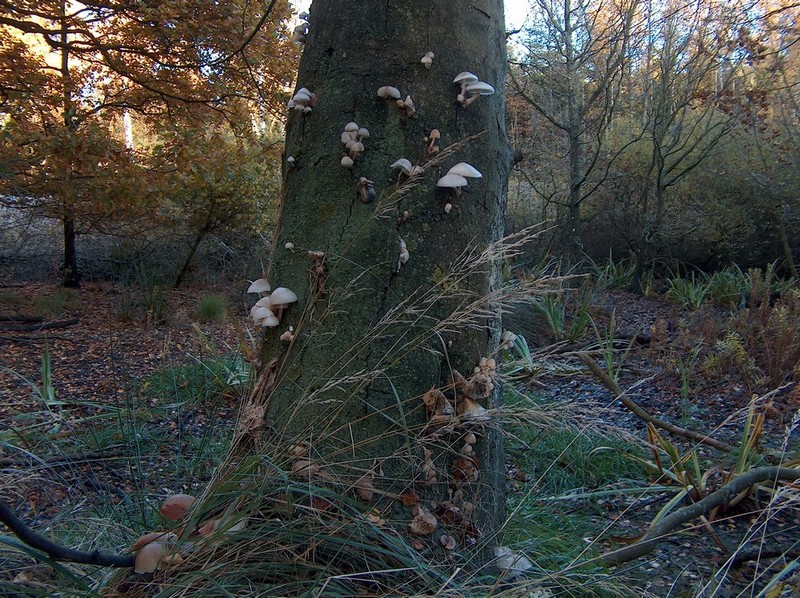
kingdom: Fungi
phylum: Basidiomycota
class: Agaricomycetes
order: Agaricales
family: Physalacriaceae
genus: Mucidula
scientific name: Mucidula mucida
